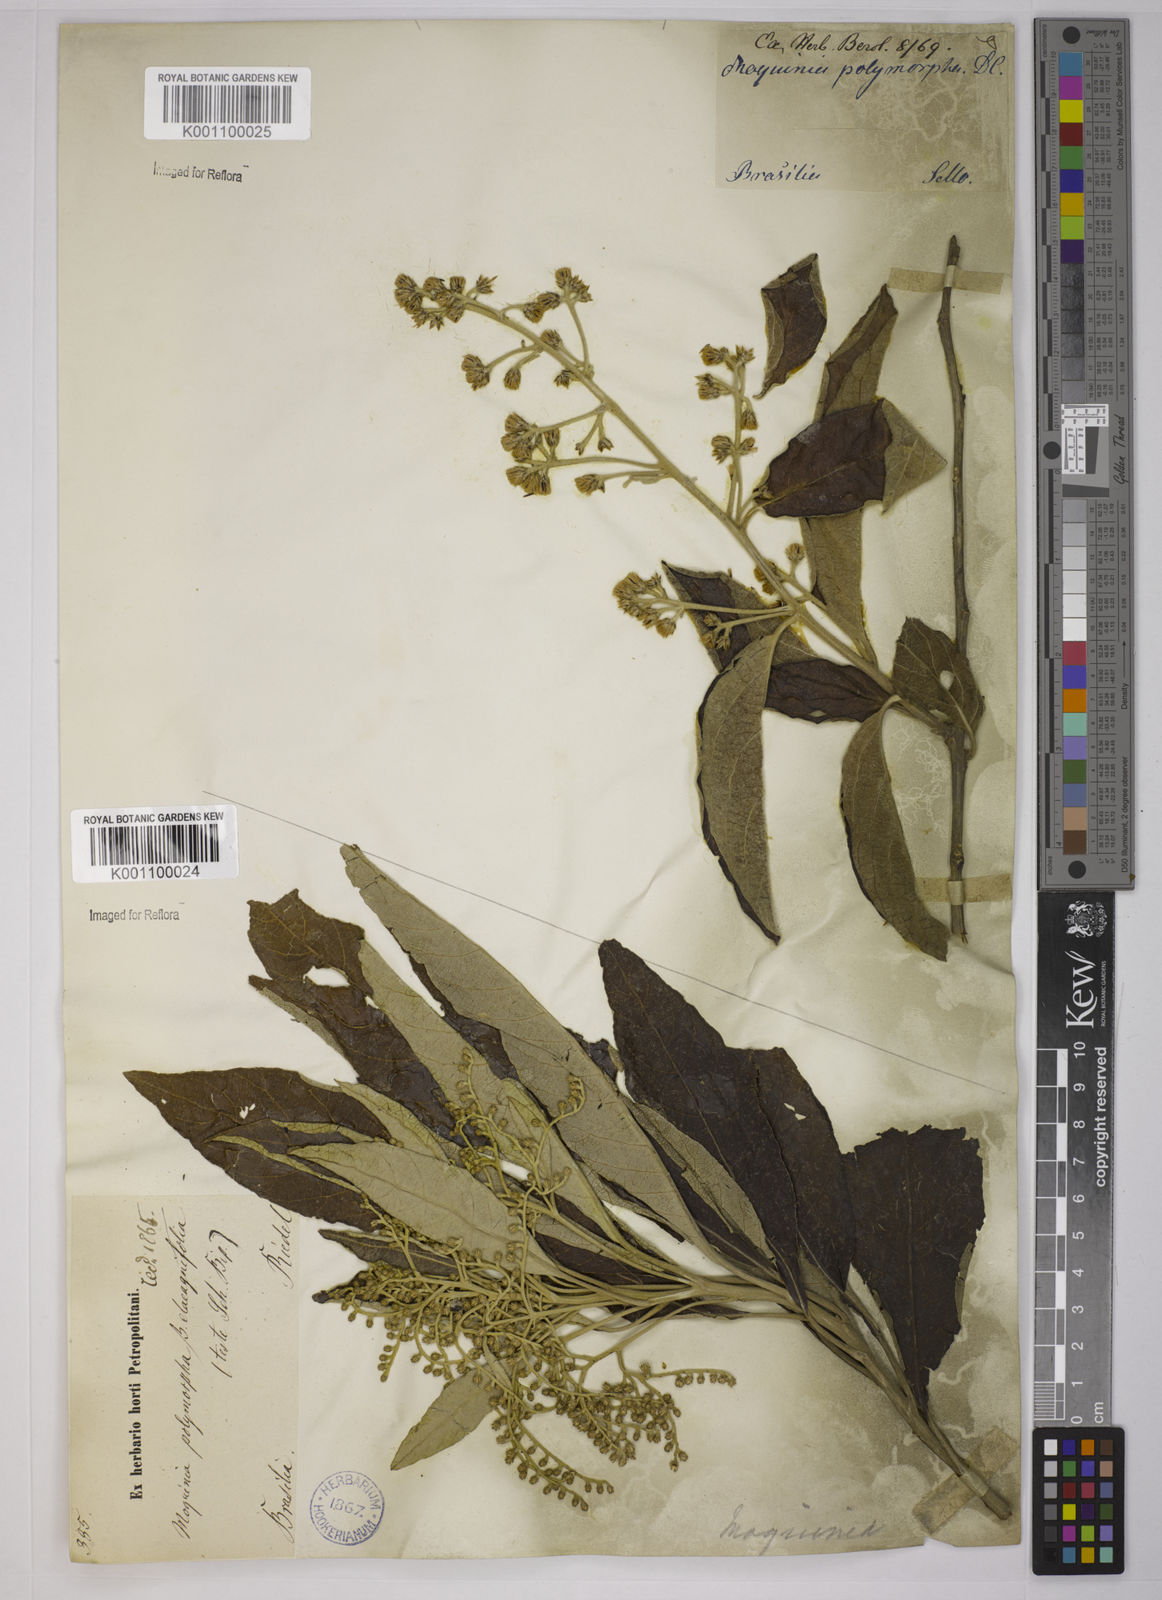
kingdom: Plantae
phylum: Tracheophyta
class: Magnoliopsida
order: Asterales
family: Asteraceae
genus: Gochnatia
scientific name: Gochnatia
